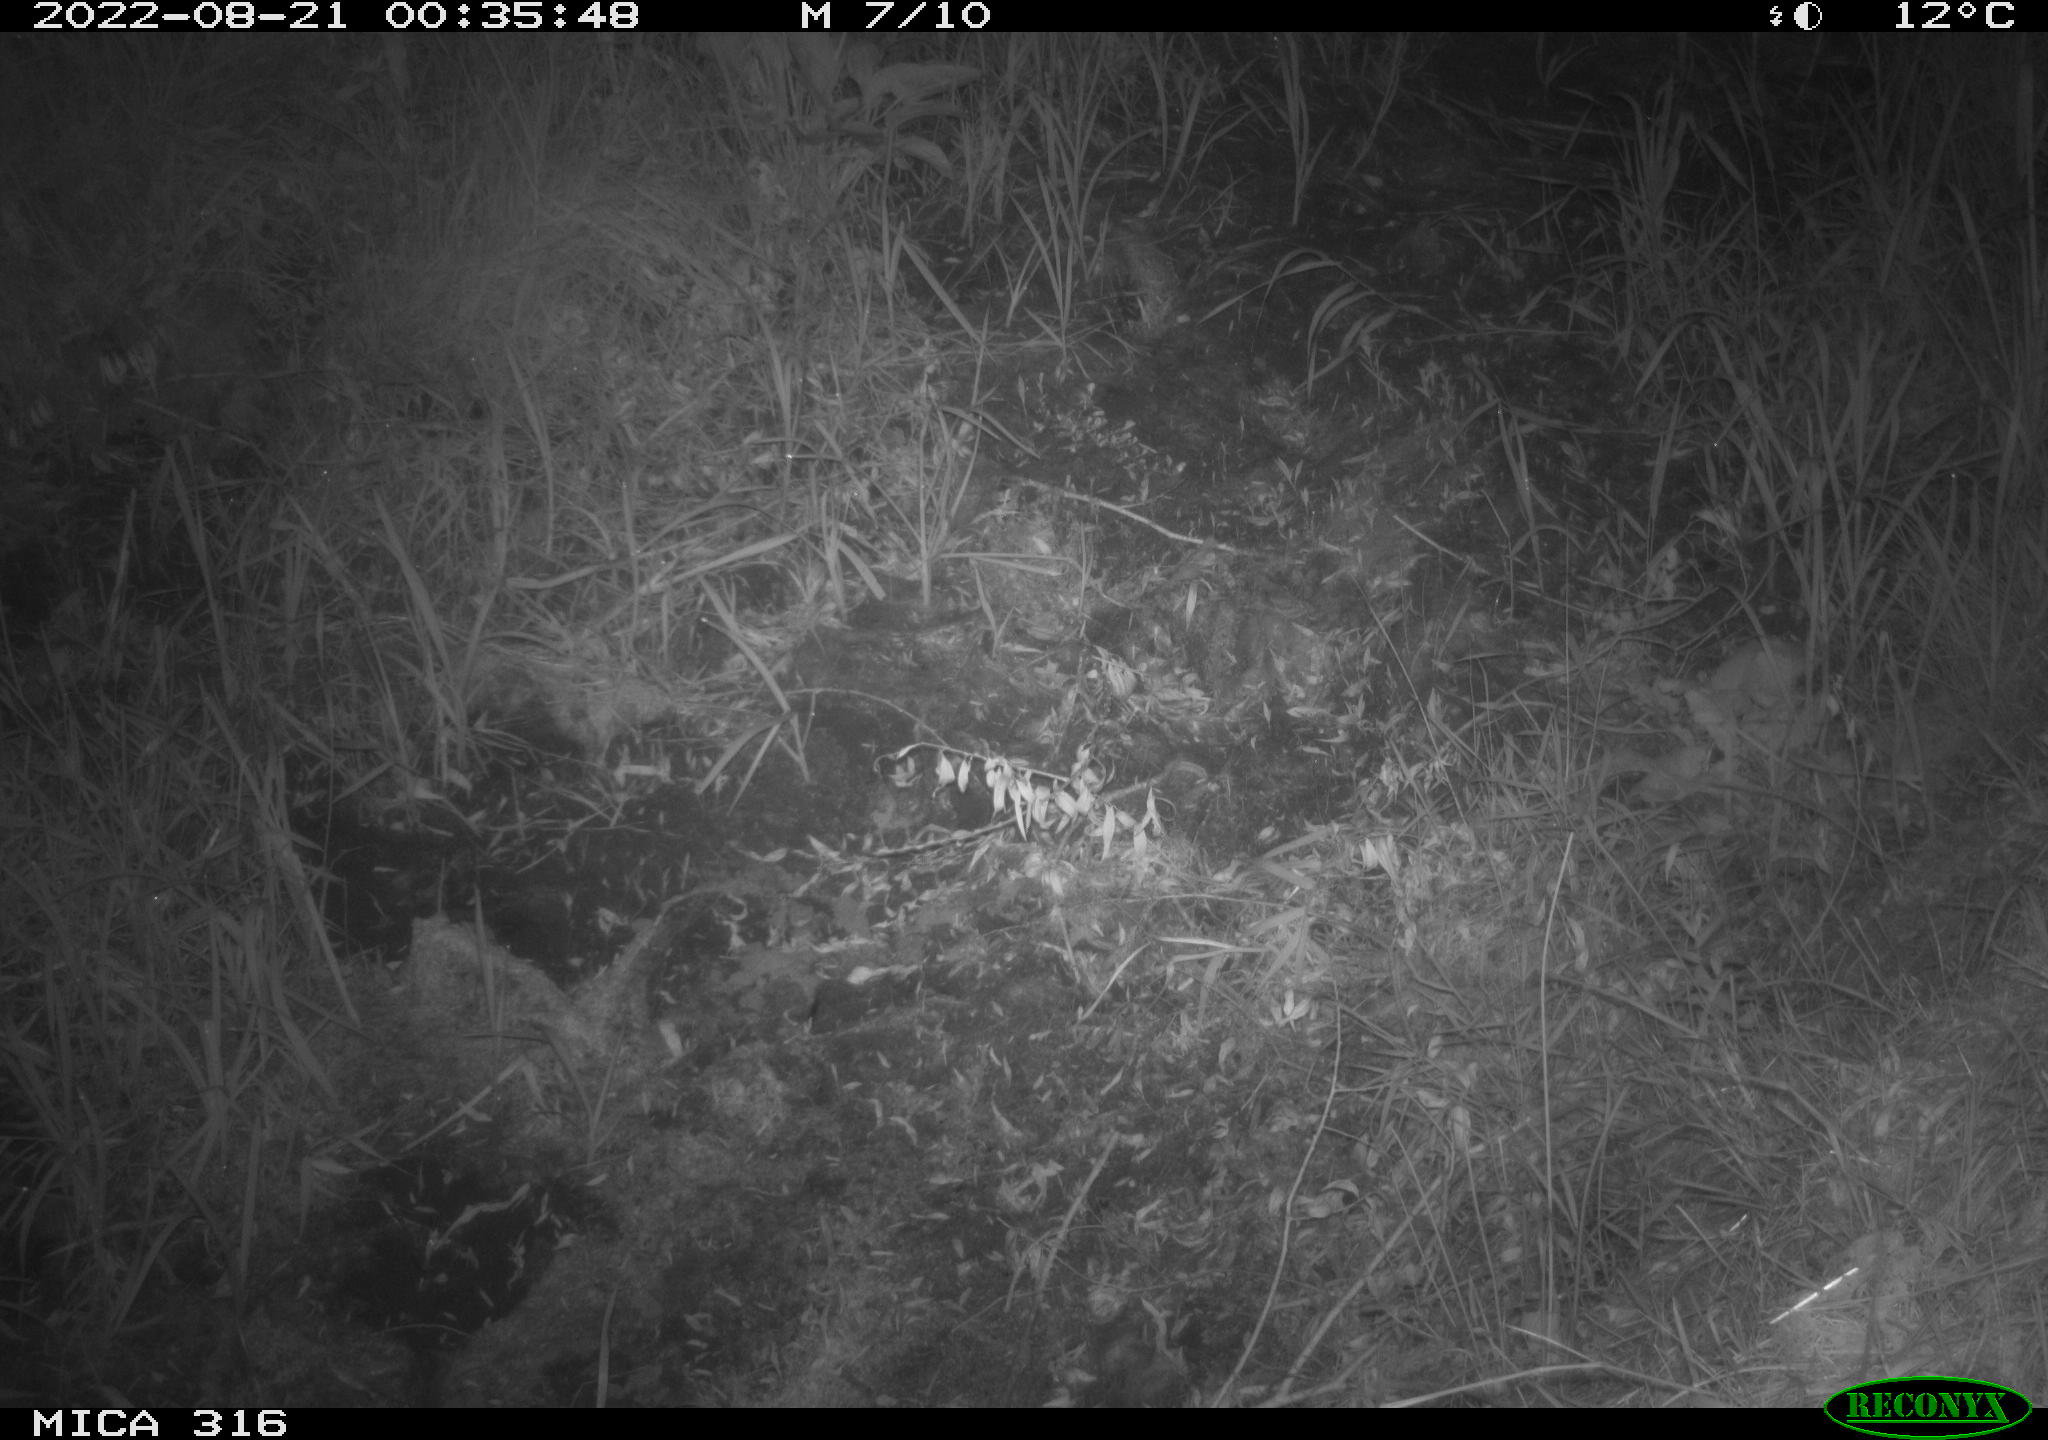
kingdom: Animalia
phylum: Chordata
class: Mammalia
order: Carnivora
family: Canidae
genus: Vulpes
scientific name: Vulpes vulpes
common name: Red fox
